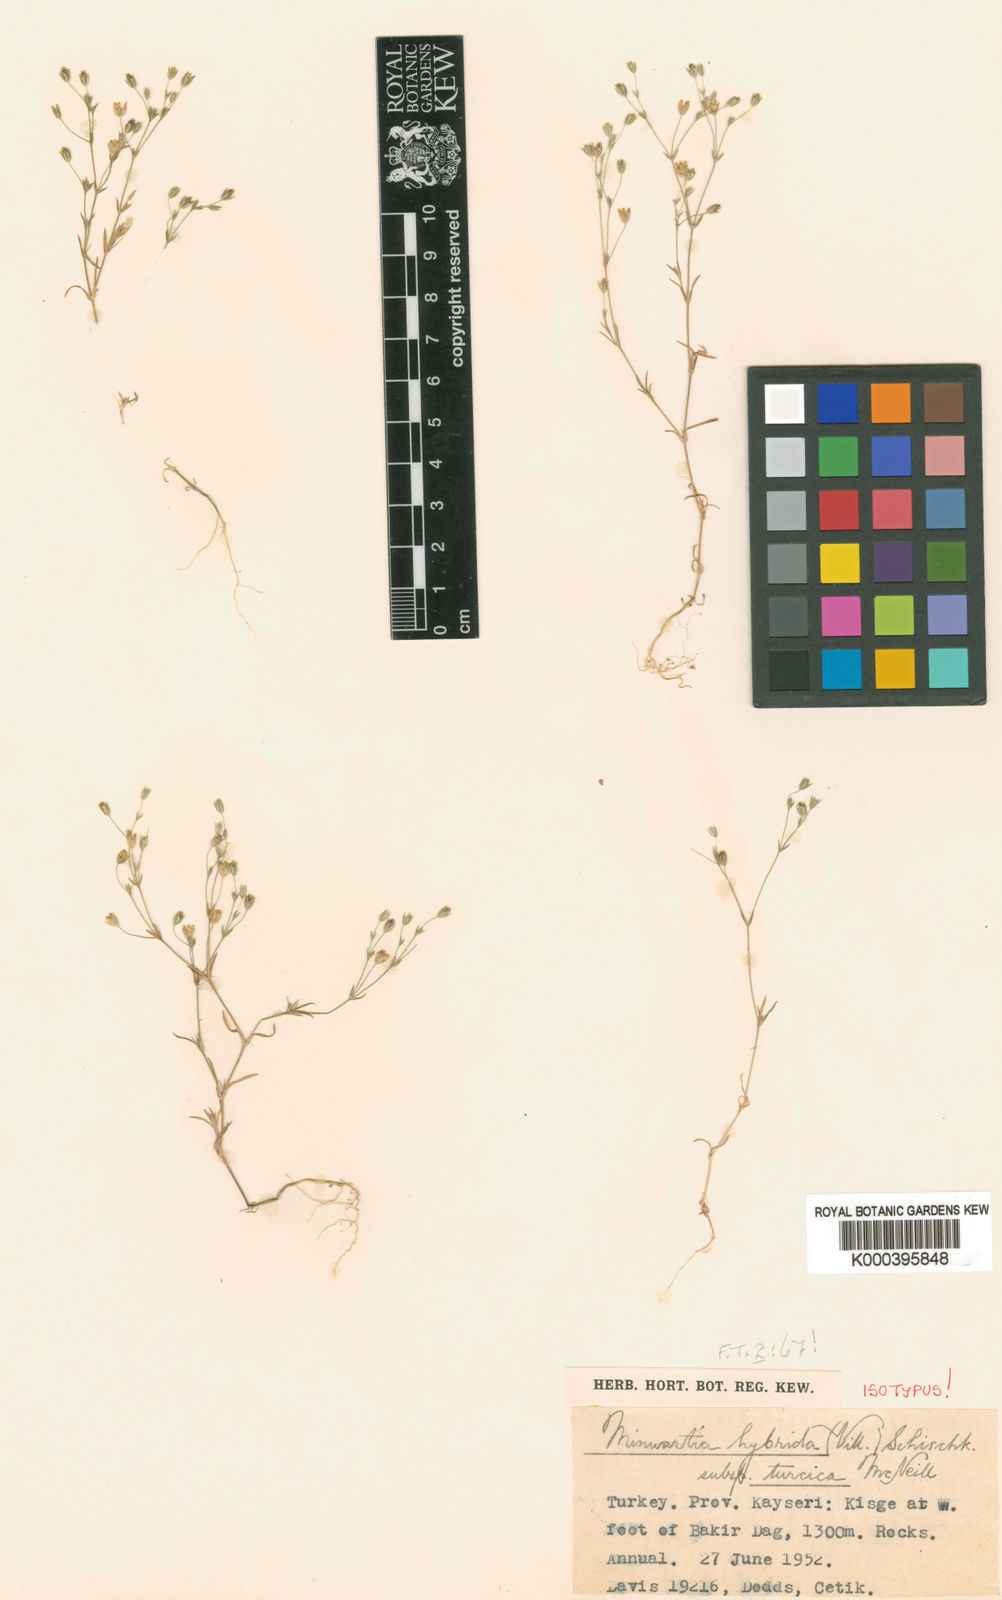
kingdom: Plantae
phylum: Tracheophyta
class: Magnoliopsida
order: Caryophyllales
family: Caryophyllaceae
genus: Sabulina
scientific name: Sabulina mesogitana
